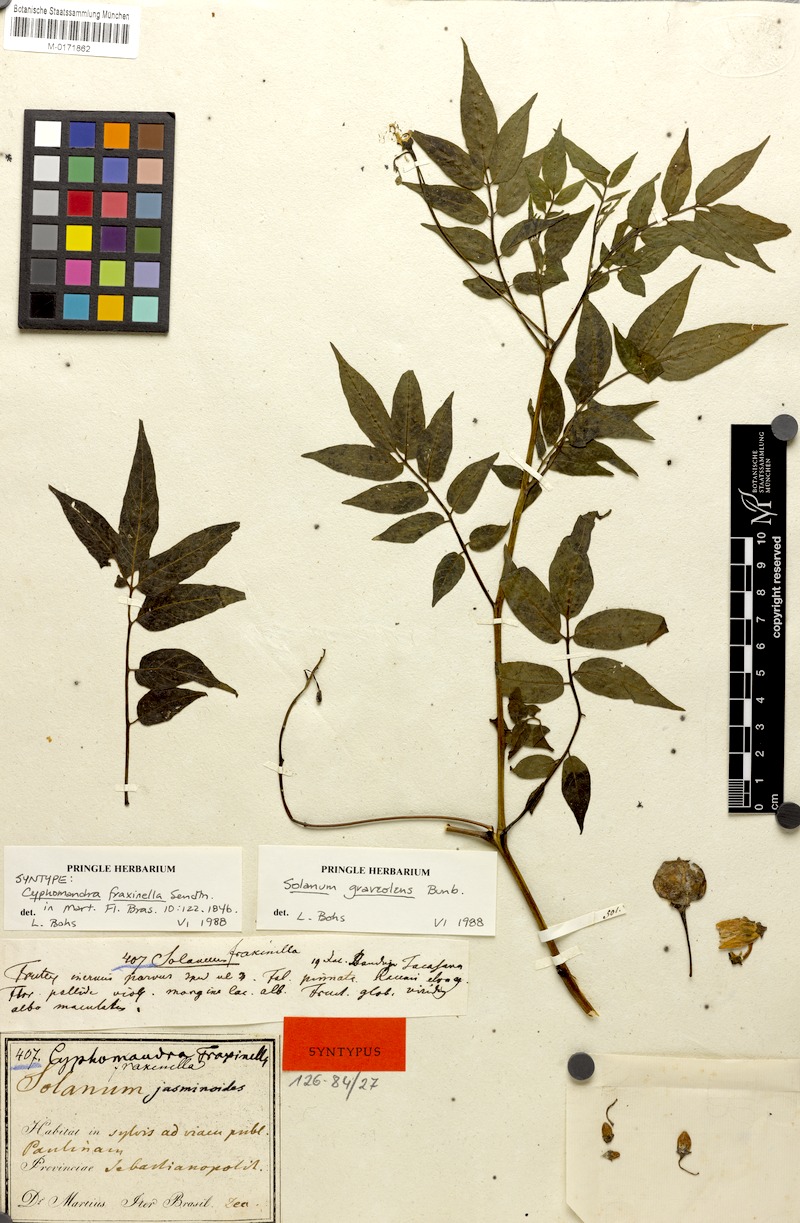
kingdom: Plantae
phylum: Tracheophyta
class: Magnoliopsida
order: Solanales
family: Solanaceae
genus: Solanum
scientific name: Solanum graveolens
